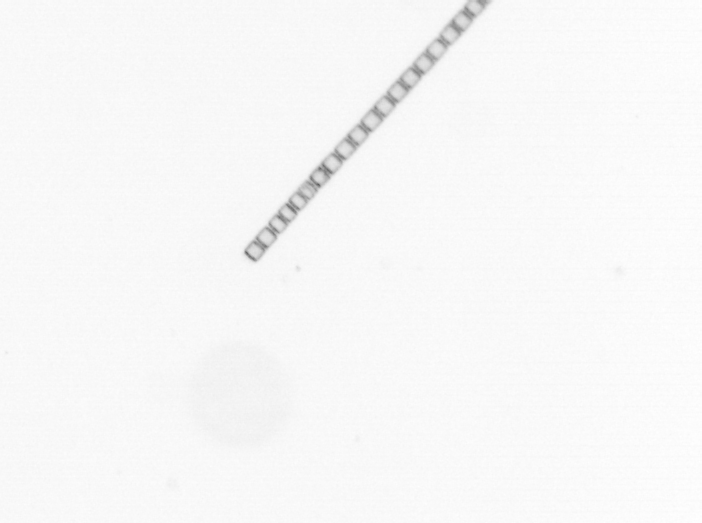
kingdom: Chromista
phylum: Ochrophyta
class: Bacillariophyceae
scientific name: Bacillariophyceae
